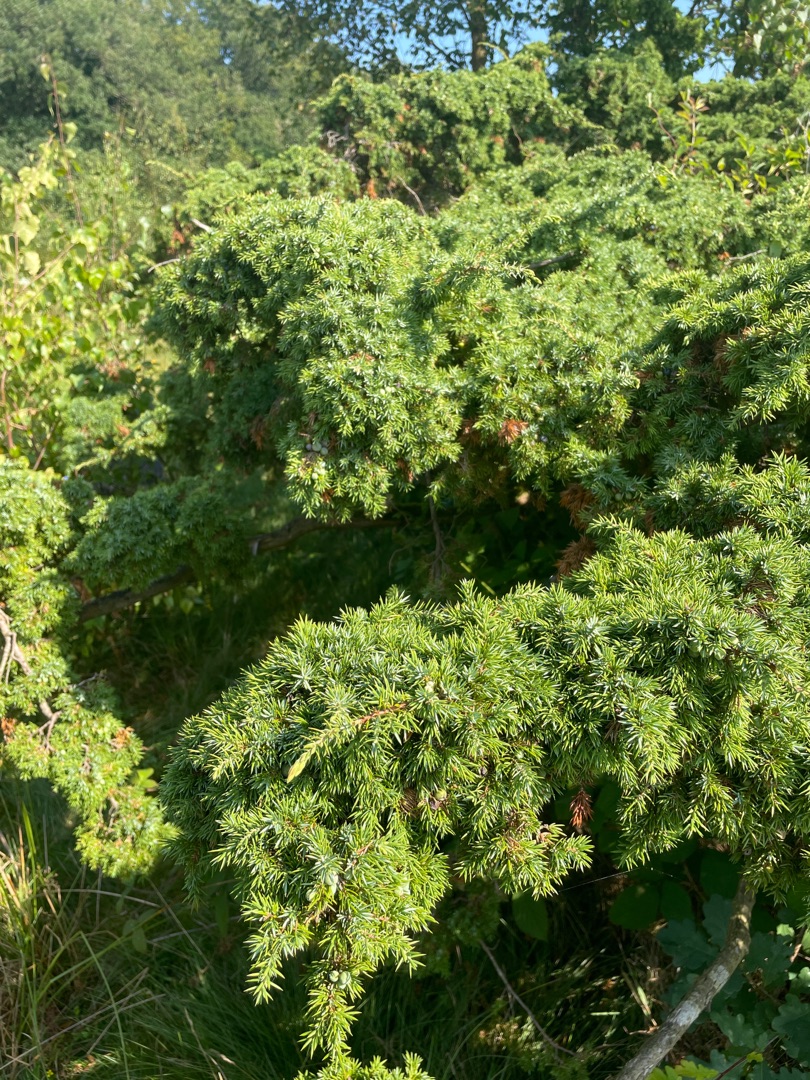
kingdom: Plantae
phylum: Tracheophyta
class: Pinopsida
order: Pinales
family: Cupressaceae
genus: Juniperus
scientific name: Juniperus communis
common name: Almindelig ene
